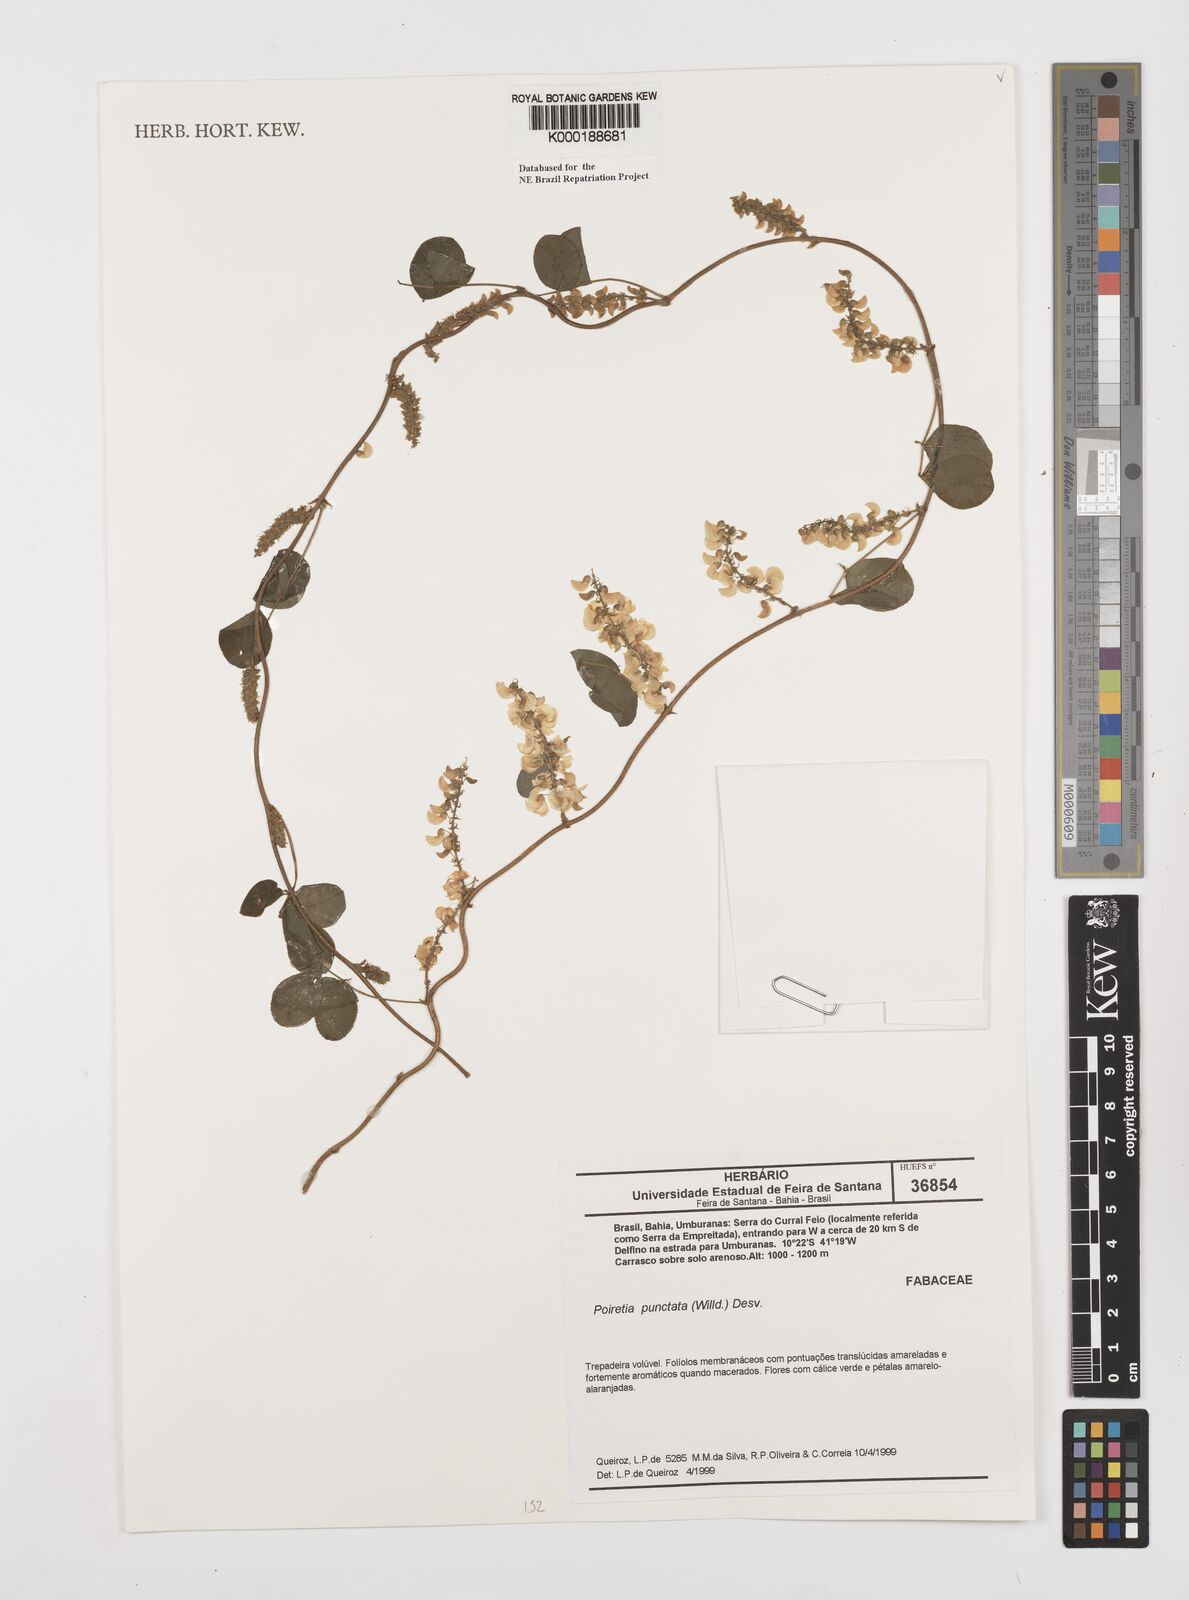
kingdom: Plantae
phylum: Tracheophyta
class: Magnoliopsida
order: Fabales
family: Fabaceae
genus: Poiretia
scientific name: Poiretia punctata
